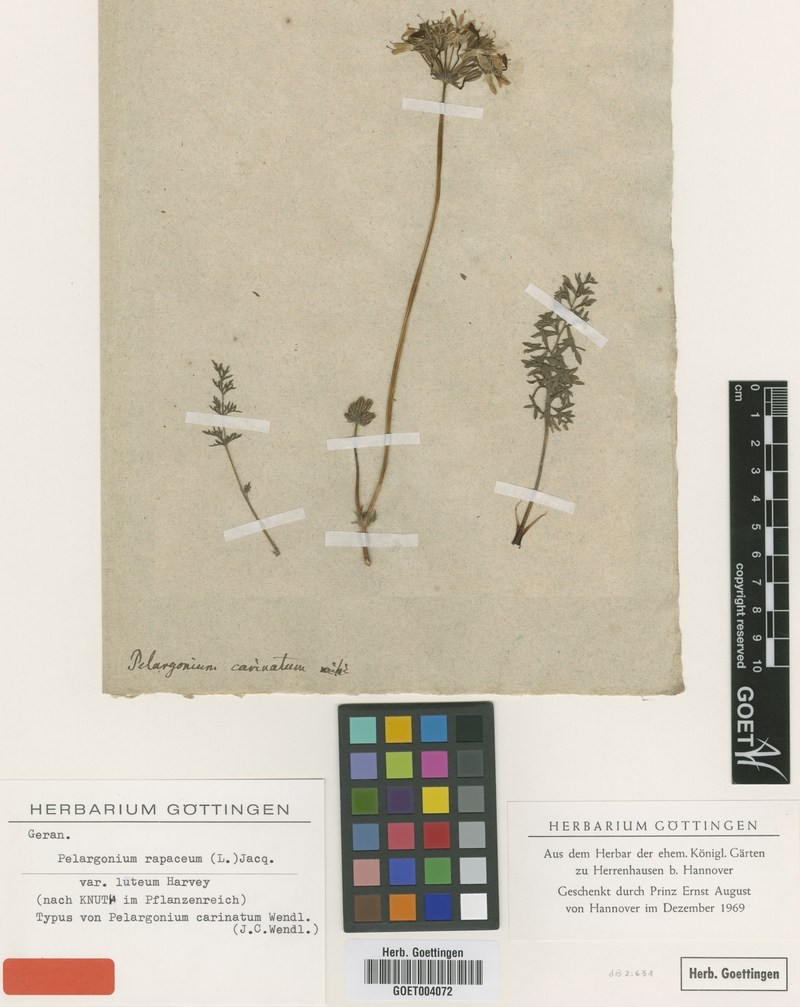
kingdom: Plantae
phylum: Tracheophyta
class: Magnoliopsida
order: Geraniales
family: Geraniaceae
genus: Pelargonium
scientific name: Pelargonium rapaceum
